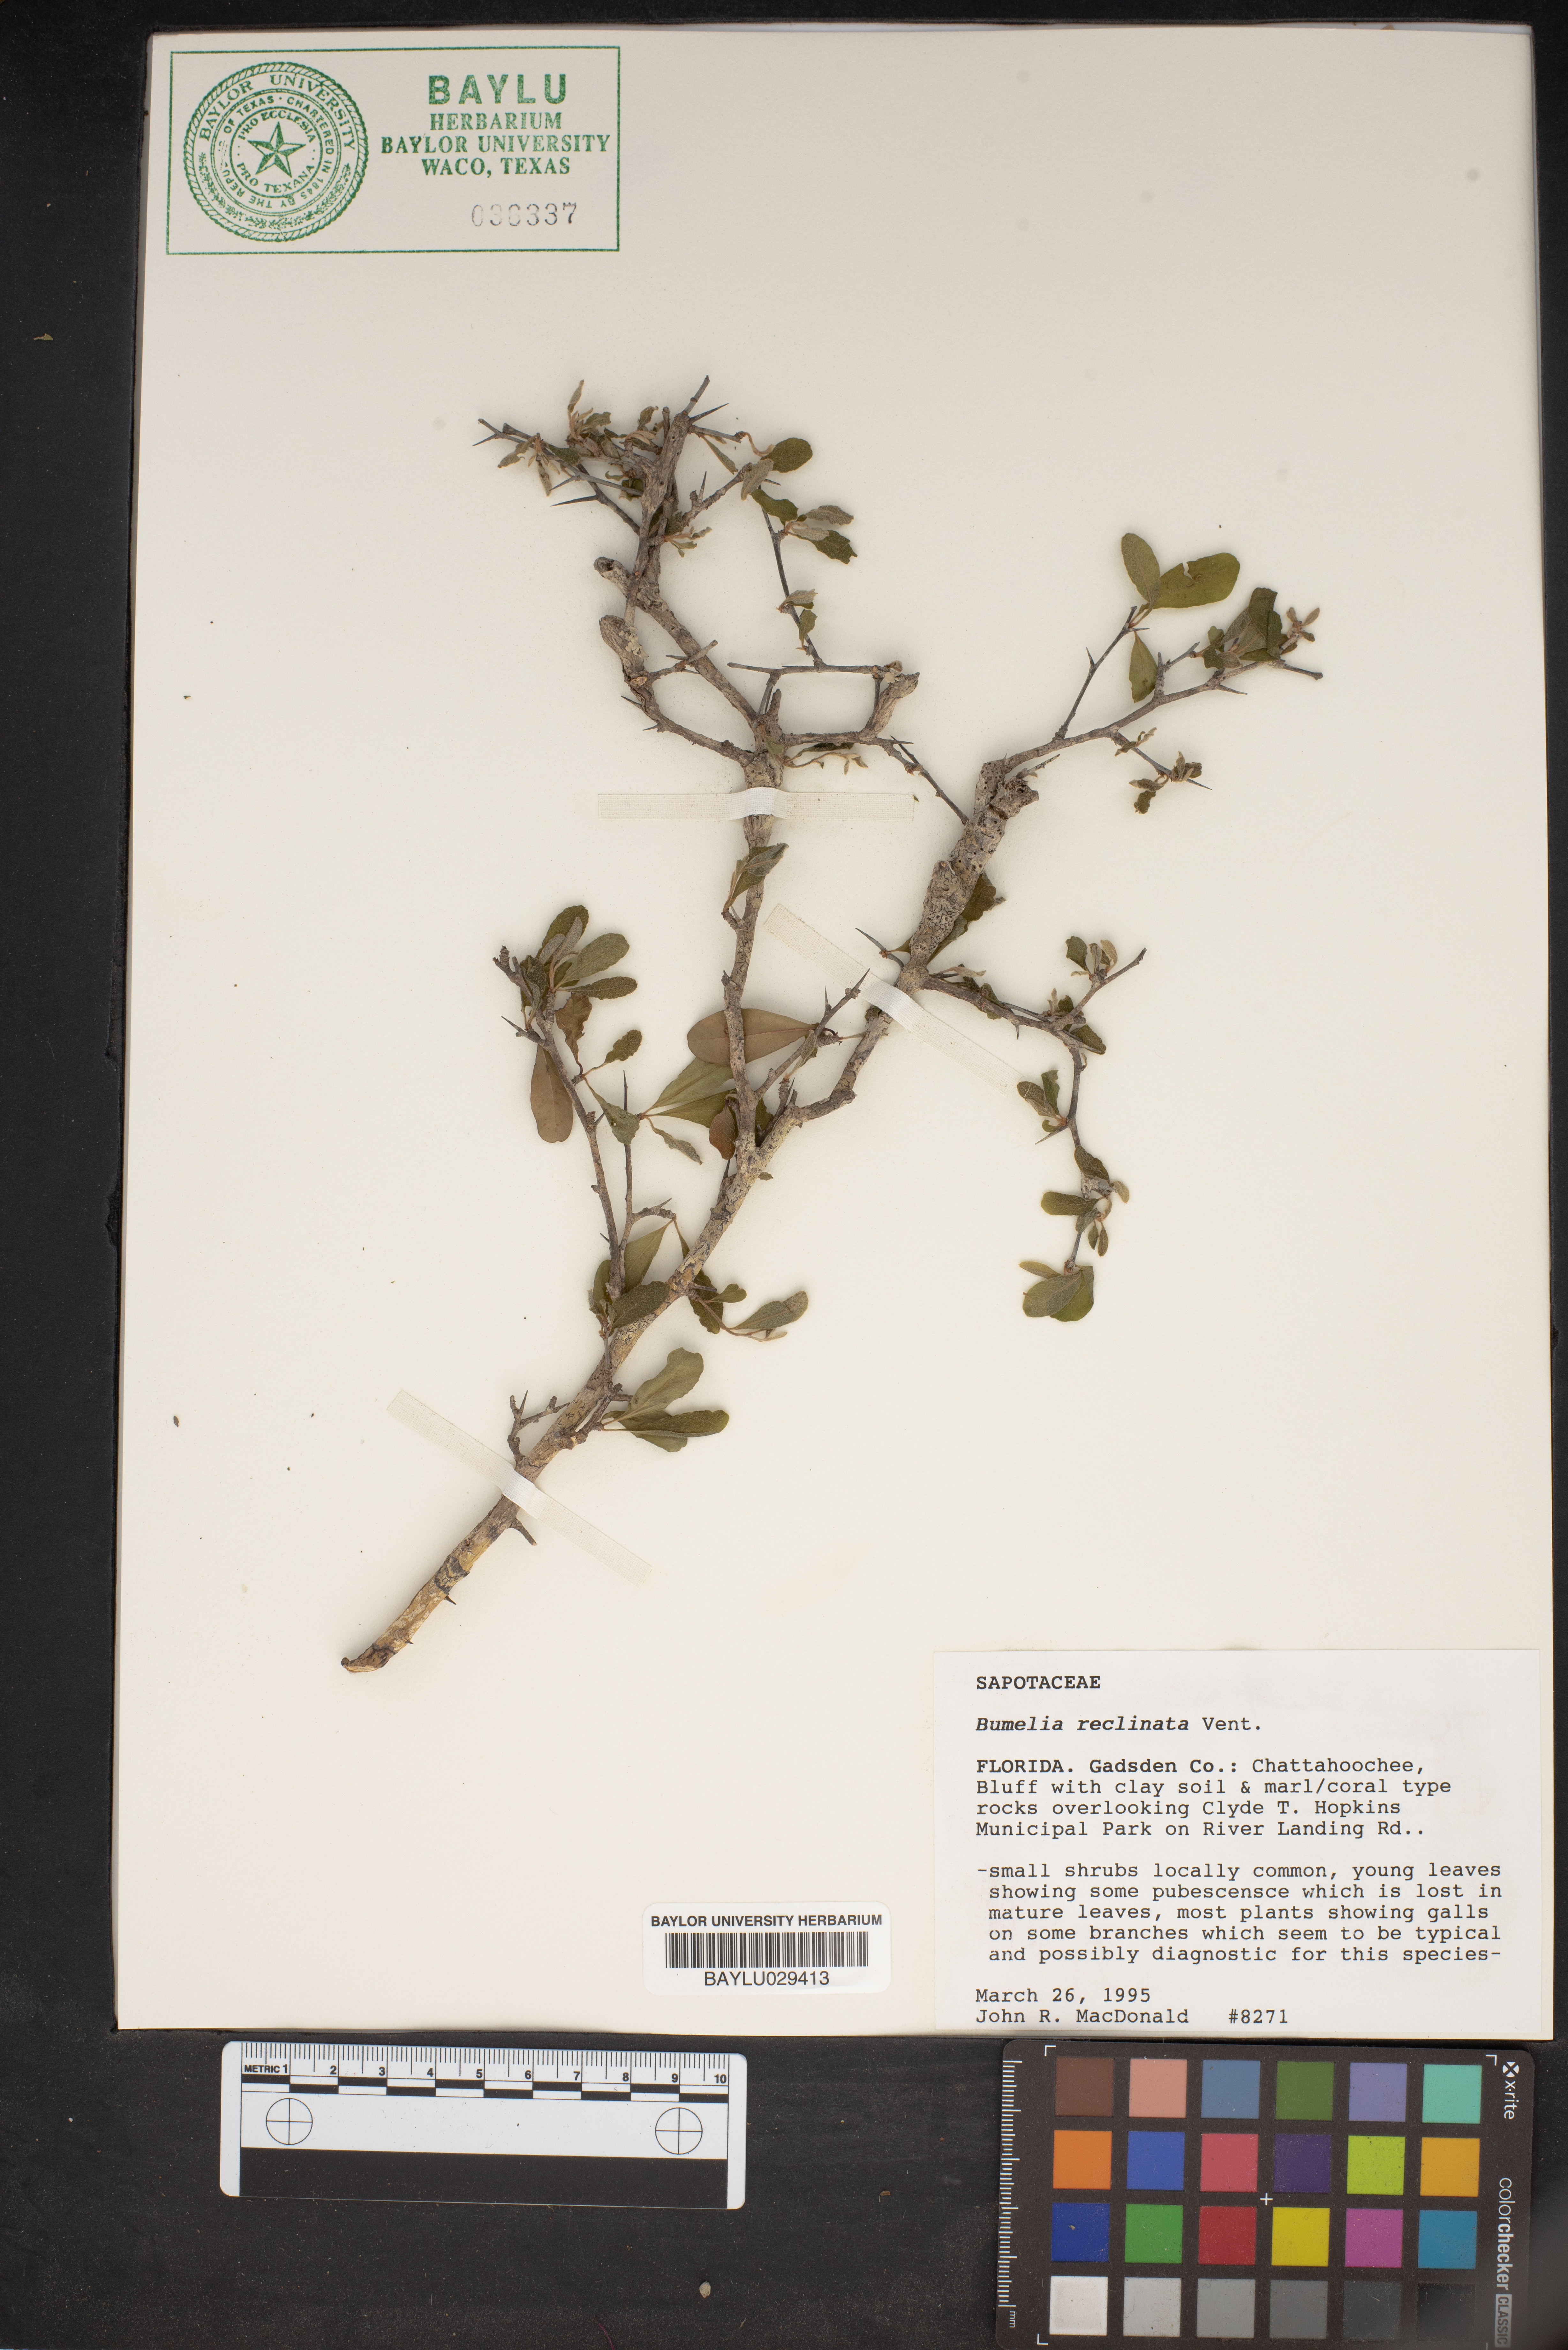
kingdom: Plantae
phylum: Tracheophyta
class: Magnoliopsida
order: Ericales
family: Sapotaceae
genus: Sideroxylon
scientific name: Sideroxylon reclinatum
